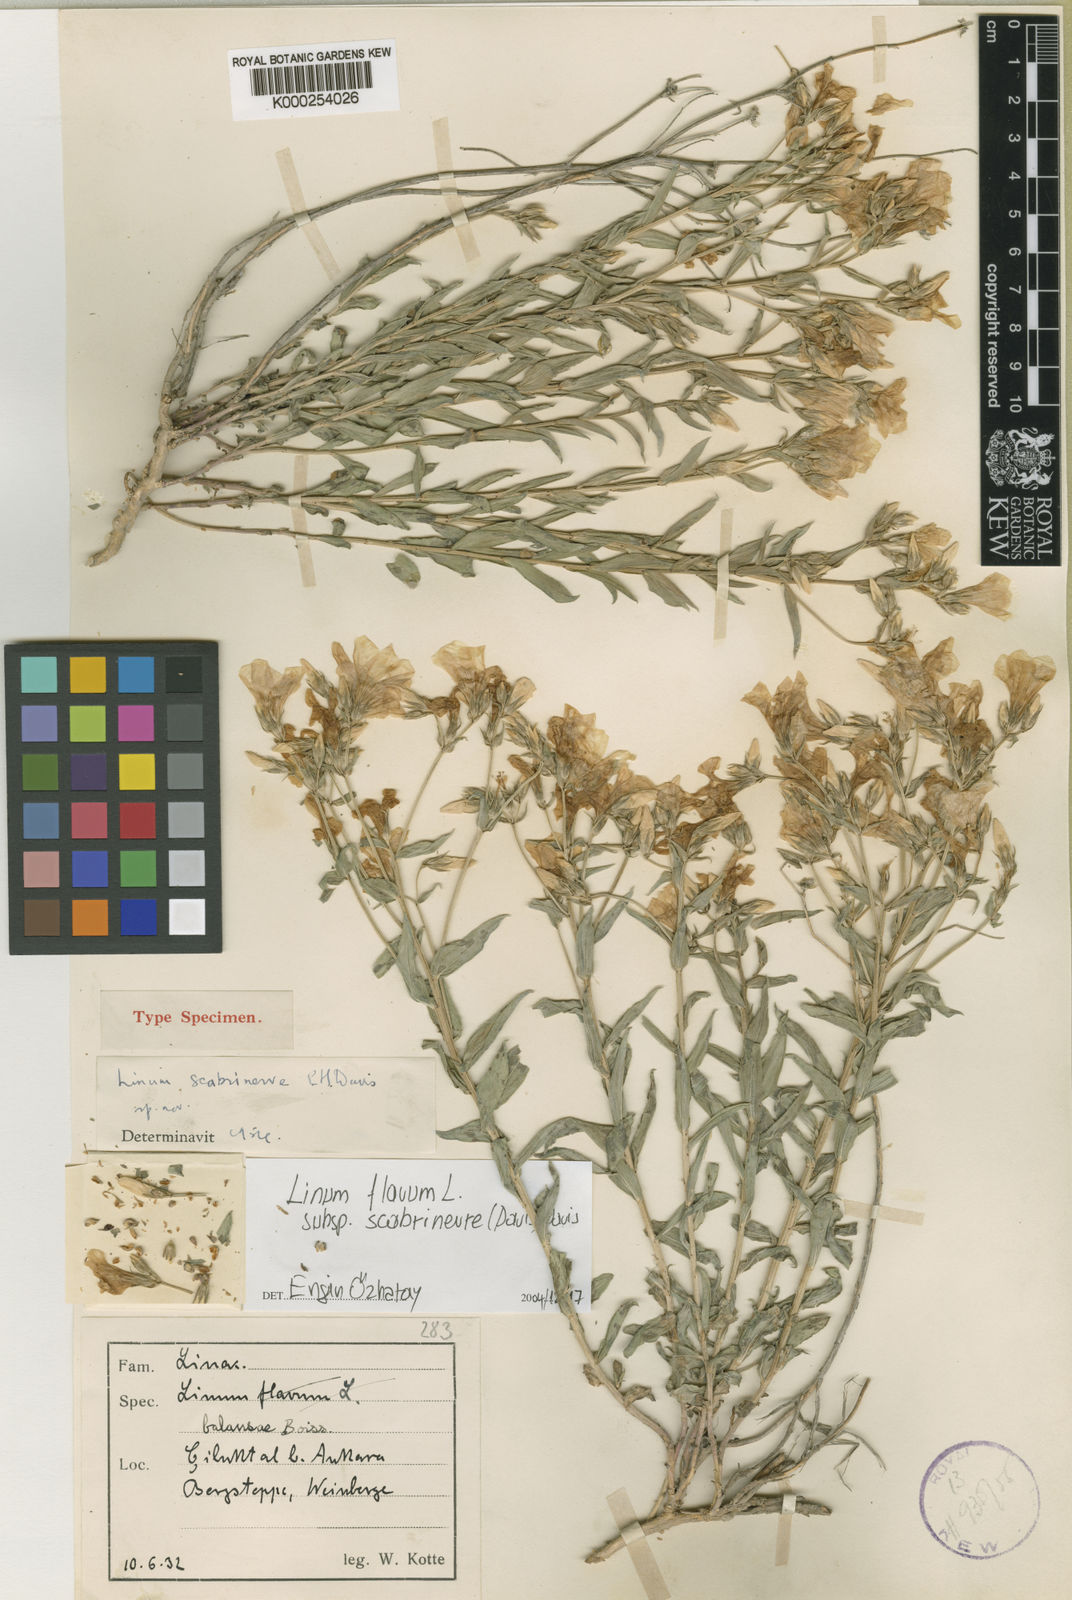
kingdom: Plantae
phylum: Tracheophyta
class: Magnoliopsida
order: Malpighiales
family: Linaceae
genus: Linum
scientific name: Linum flavum
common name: Yellow flax
